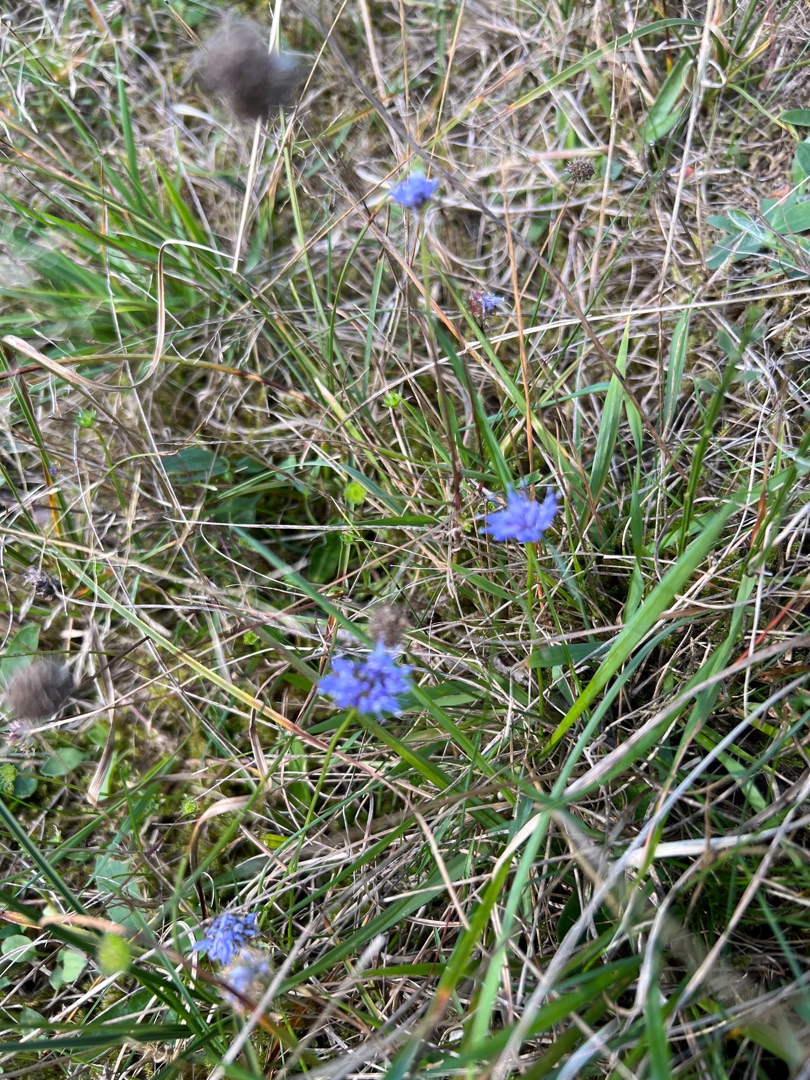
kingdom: Plantae
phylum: Tracheophyta
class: Magnoliopsida
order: Asterales
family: Campanulaceae
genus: Jasione
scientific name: Jasione montana
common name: Blåmunke
